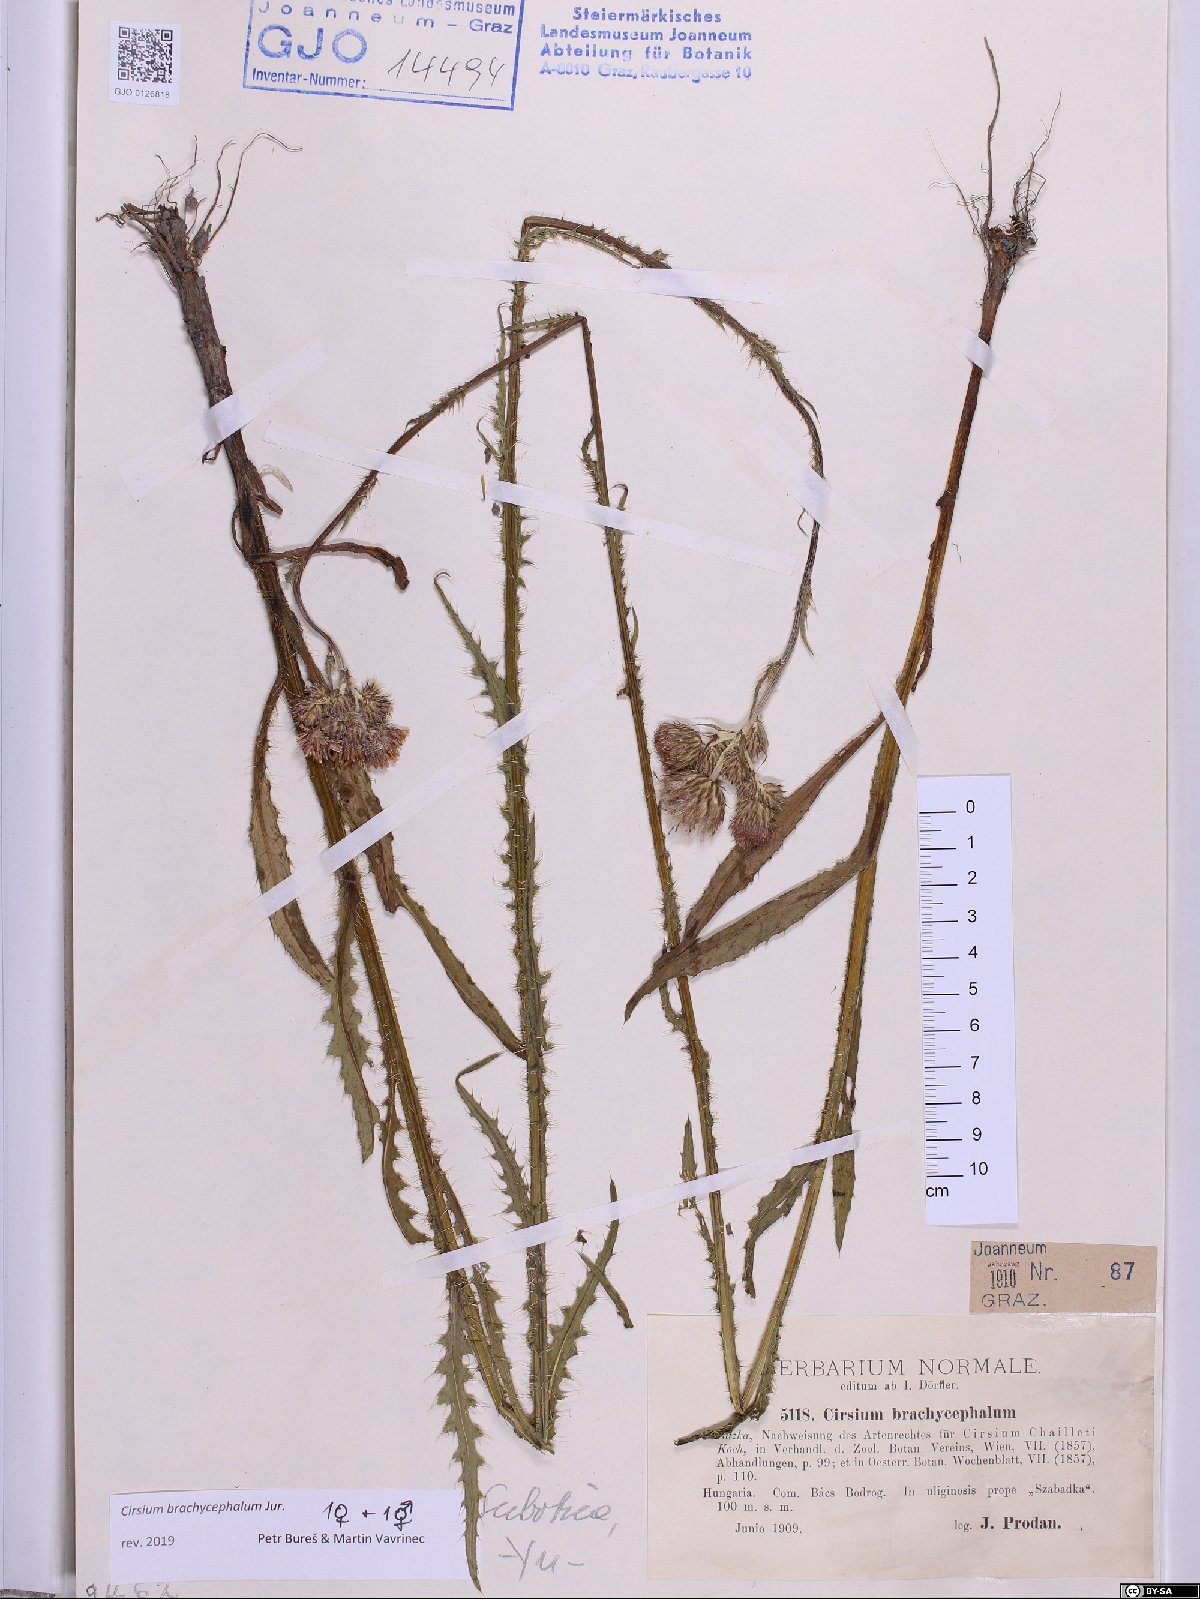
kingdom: Plantae
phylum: Tracheophyta
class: Magnoliopsida
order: Asterales
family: Asteraceae
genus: Cirsium
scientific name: Cirsium brachycephalum
